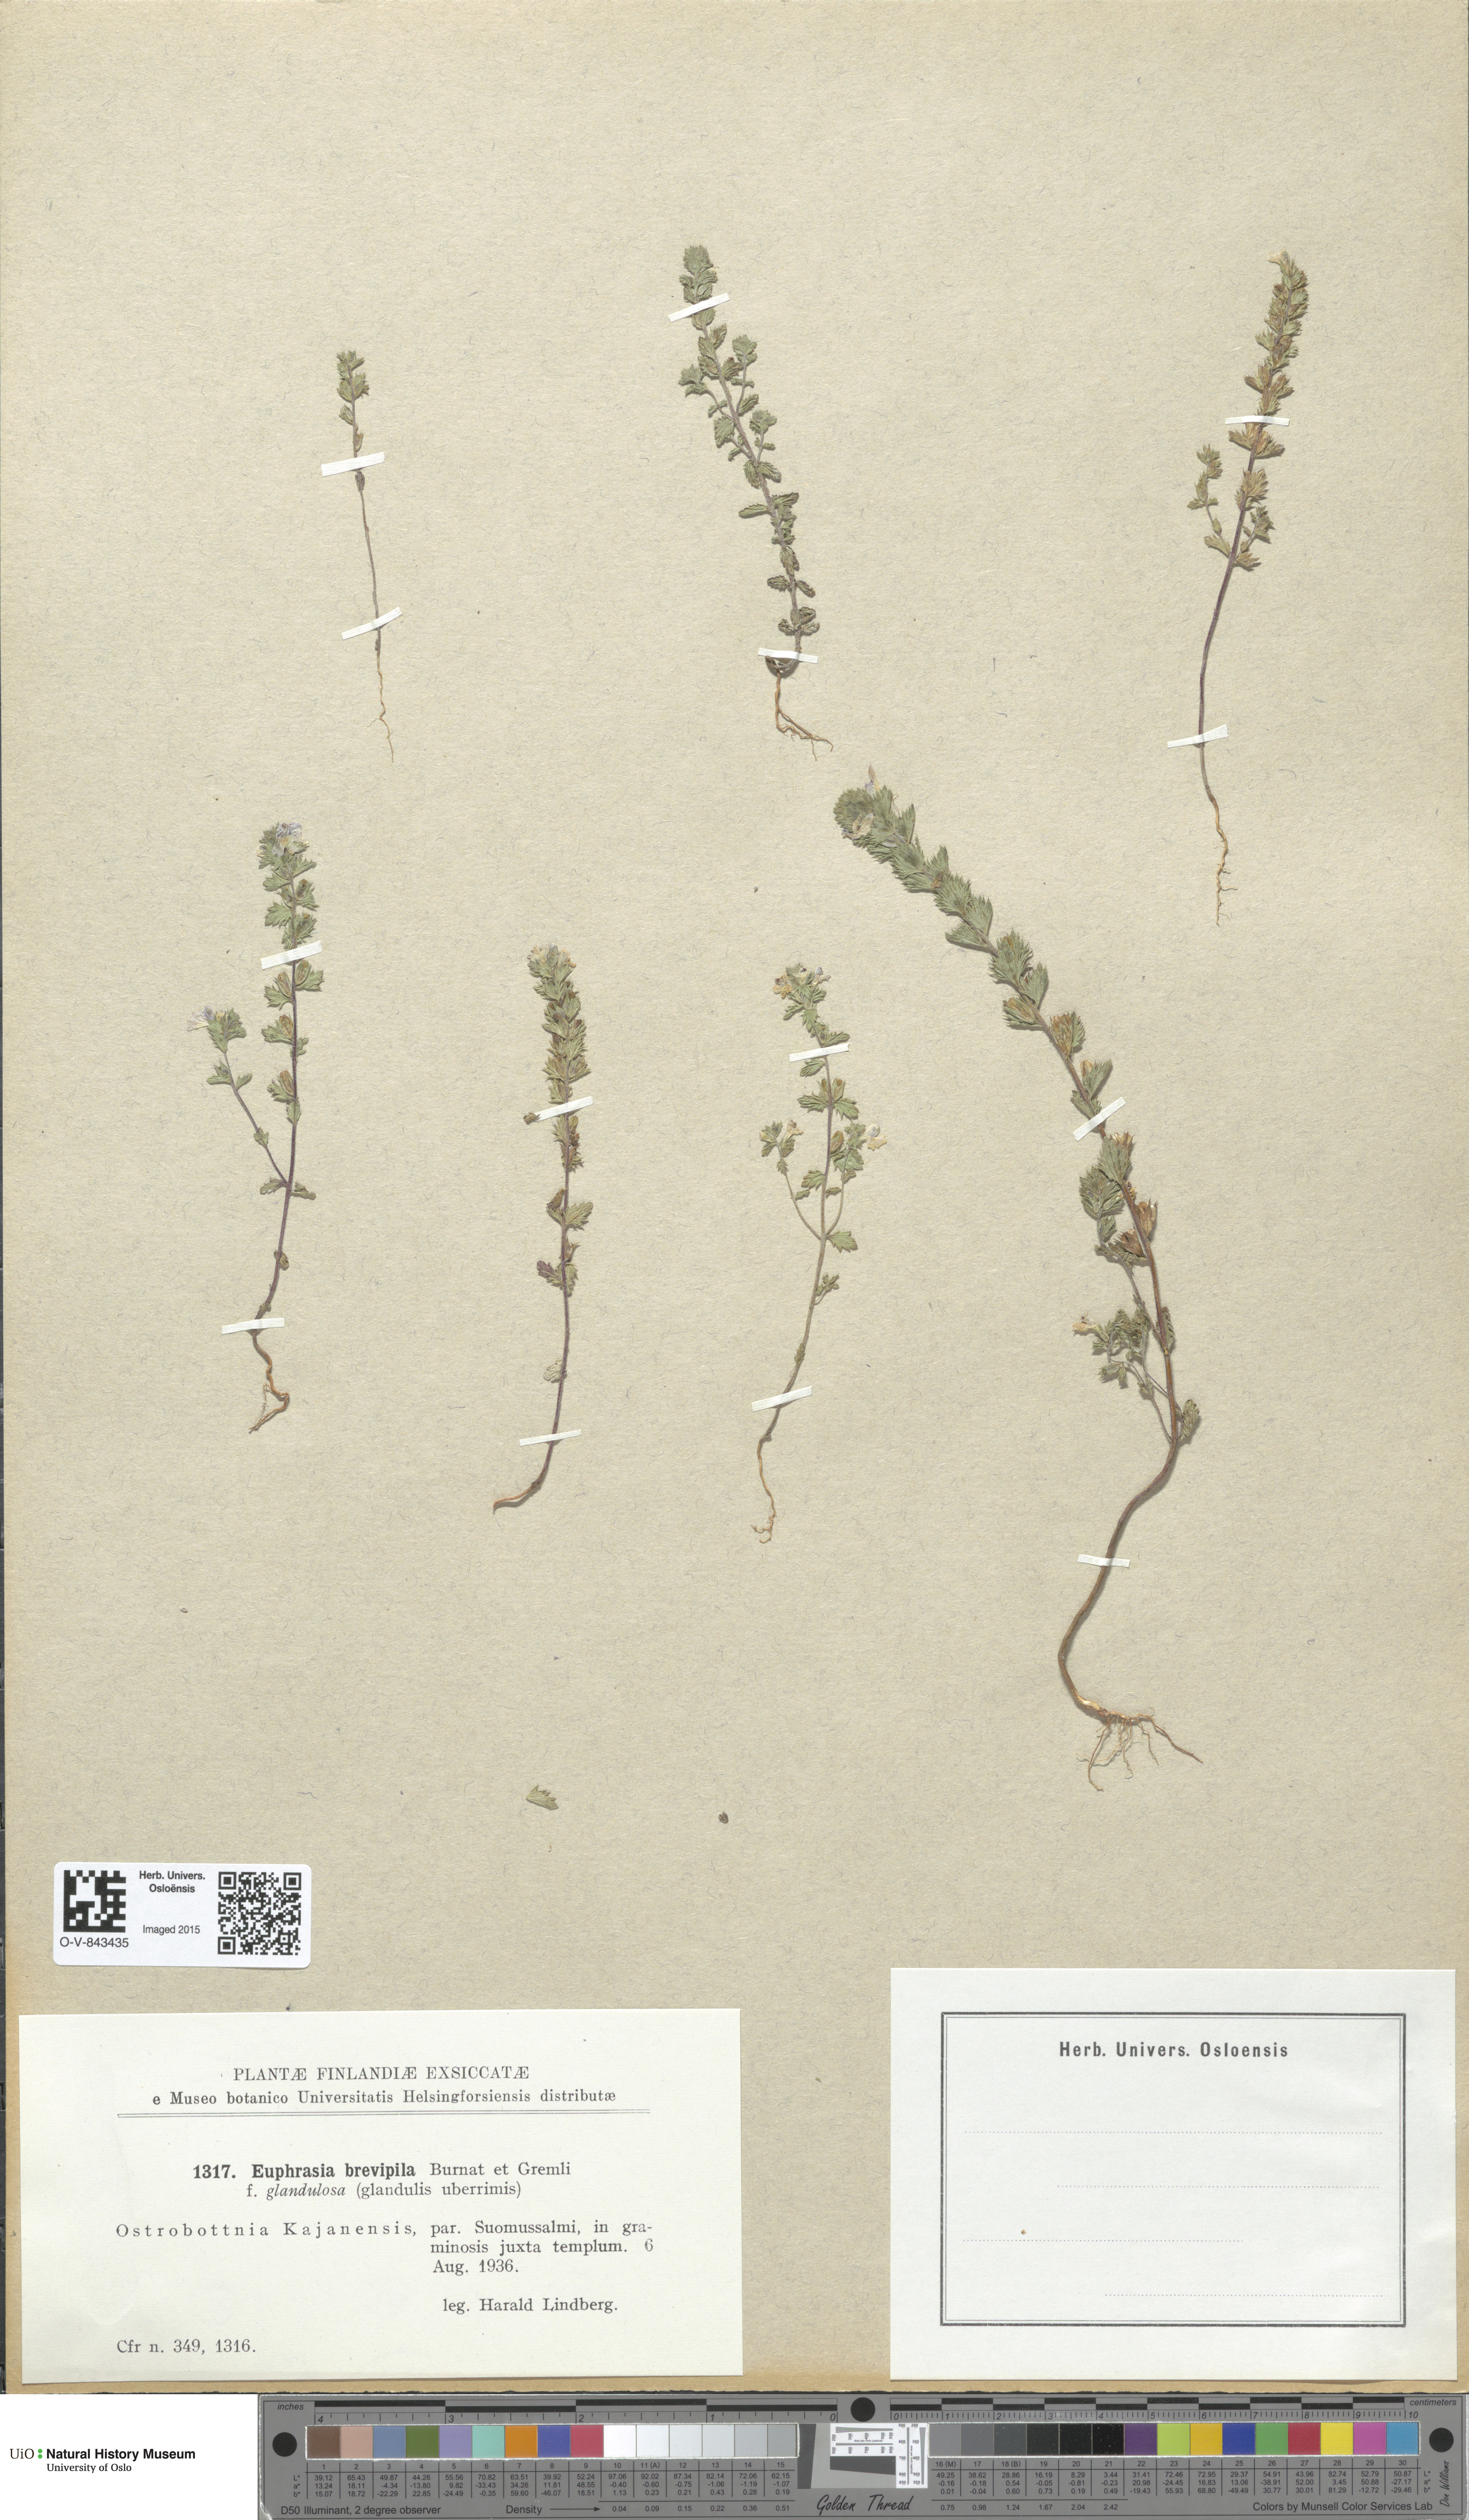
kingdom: Plantae
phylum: Tracheophyta
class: Magnoliopsida
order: Lamiales
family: Orobanchaceae
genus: Euphrasia
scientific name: Euphrasia vernalis
